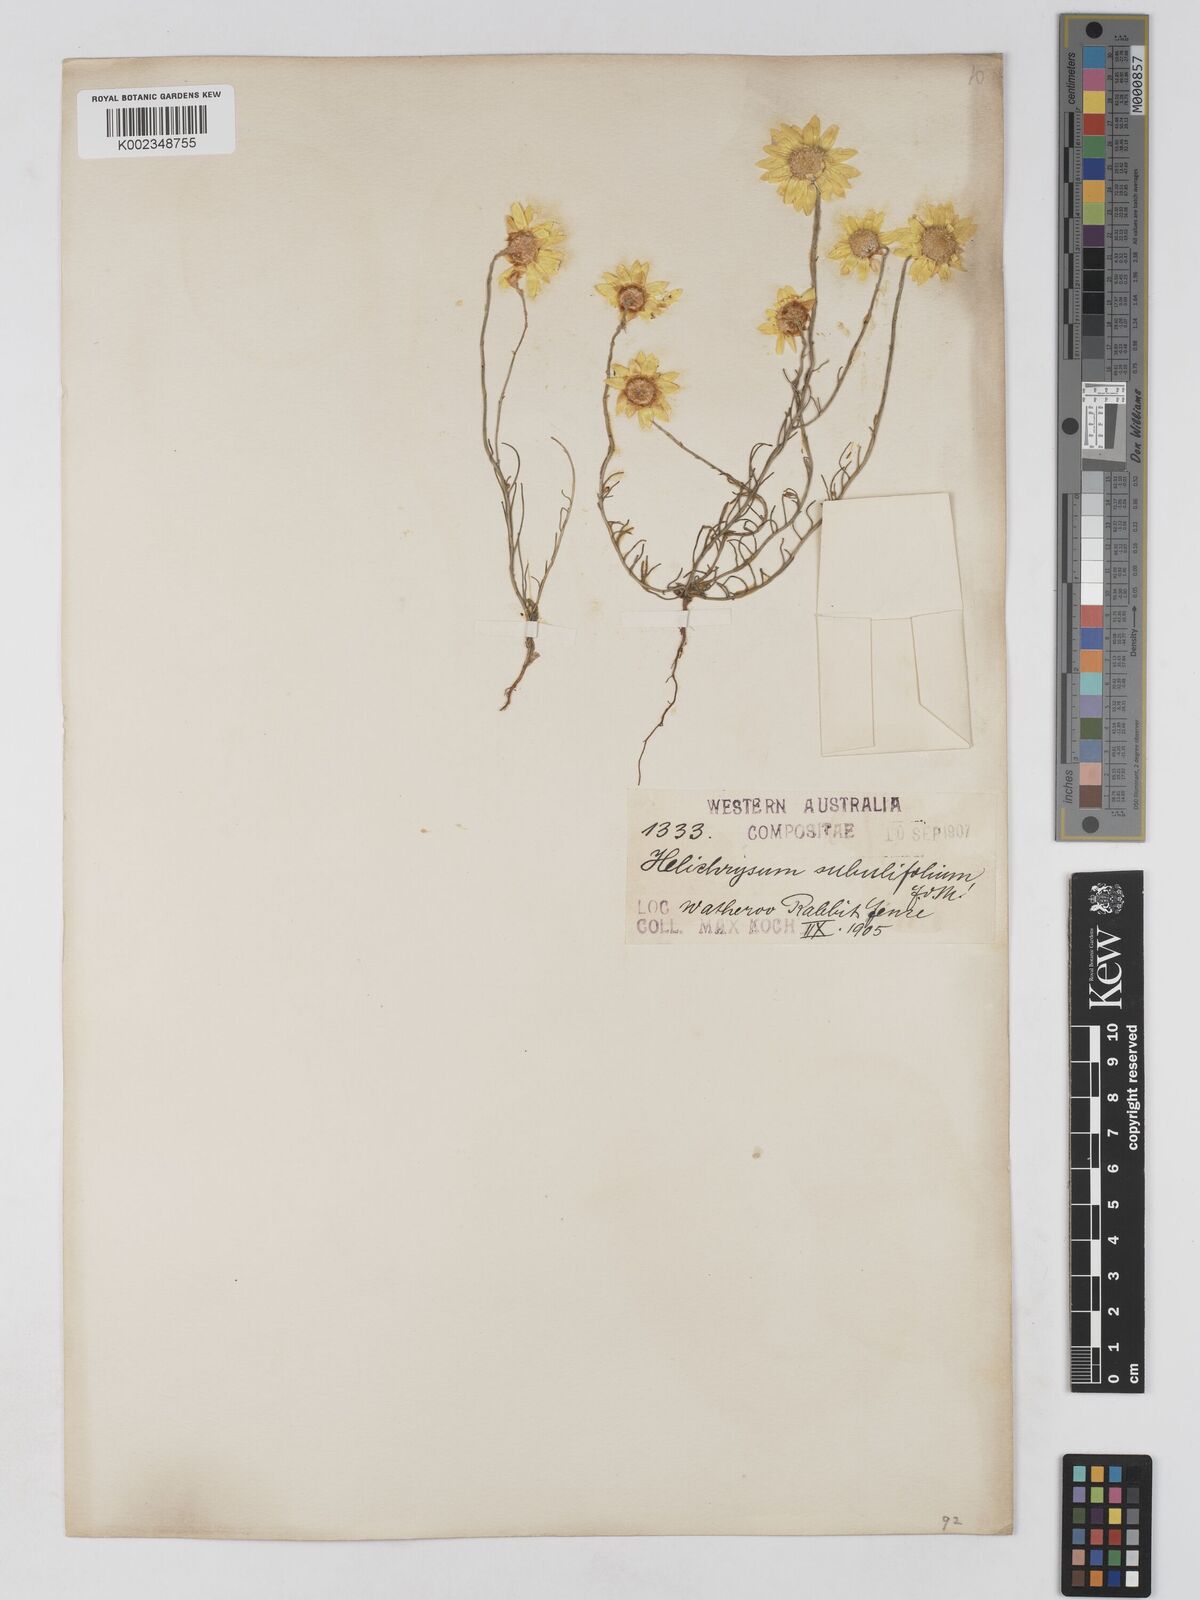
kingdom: Plantae
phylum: Tracheophyta
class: Magnoliopsida
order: Asterales
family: Asteraceae
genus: Schoenia
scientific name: Schoenia filifolia
